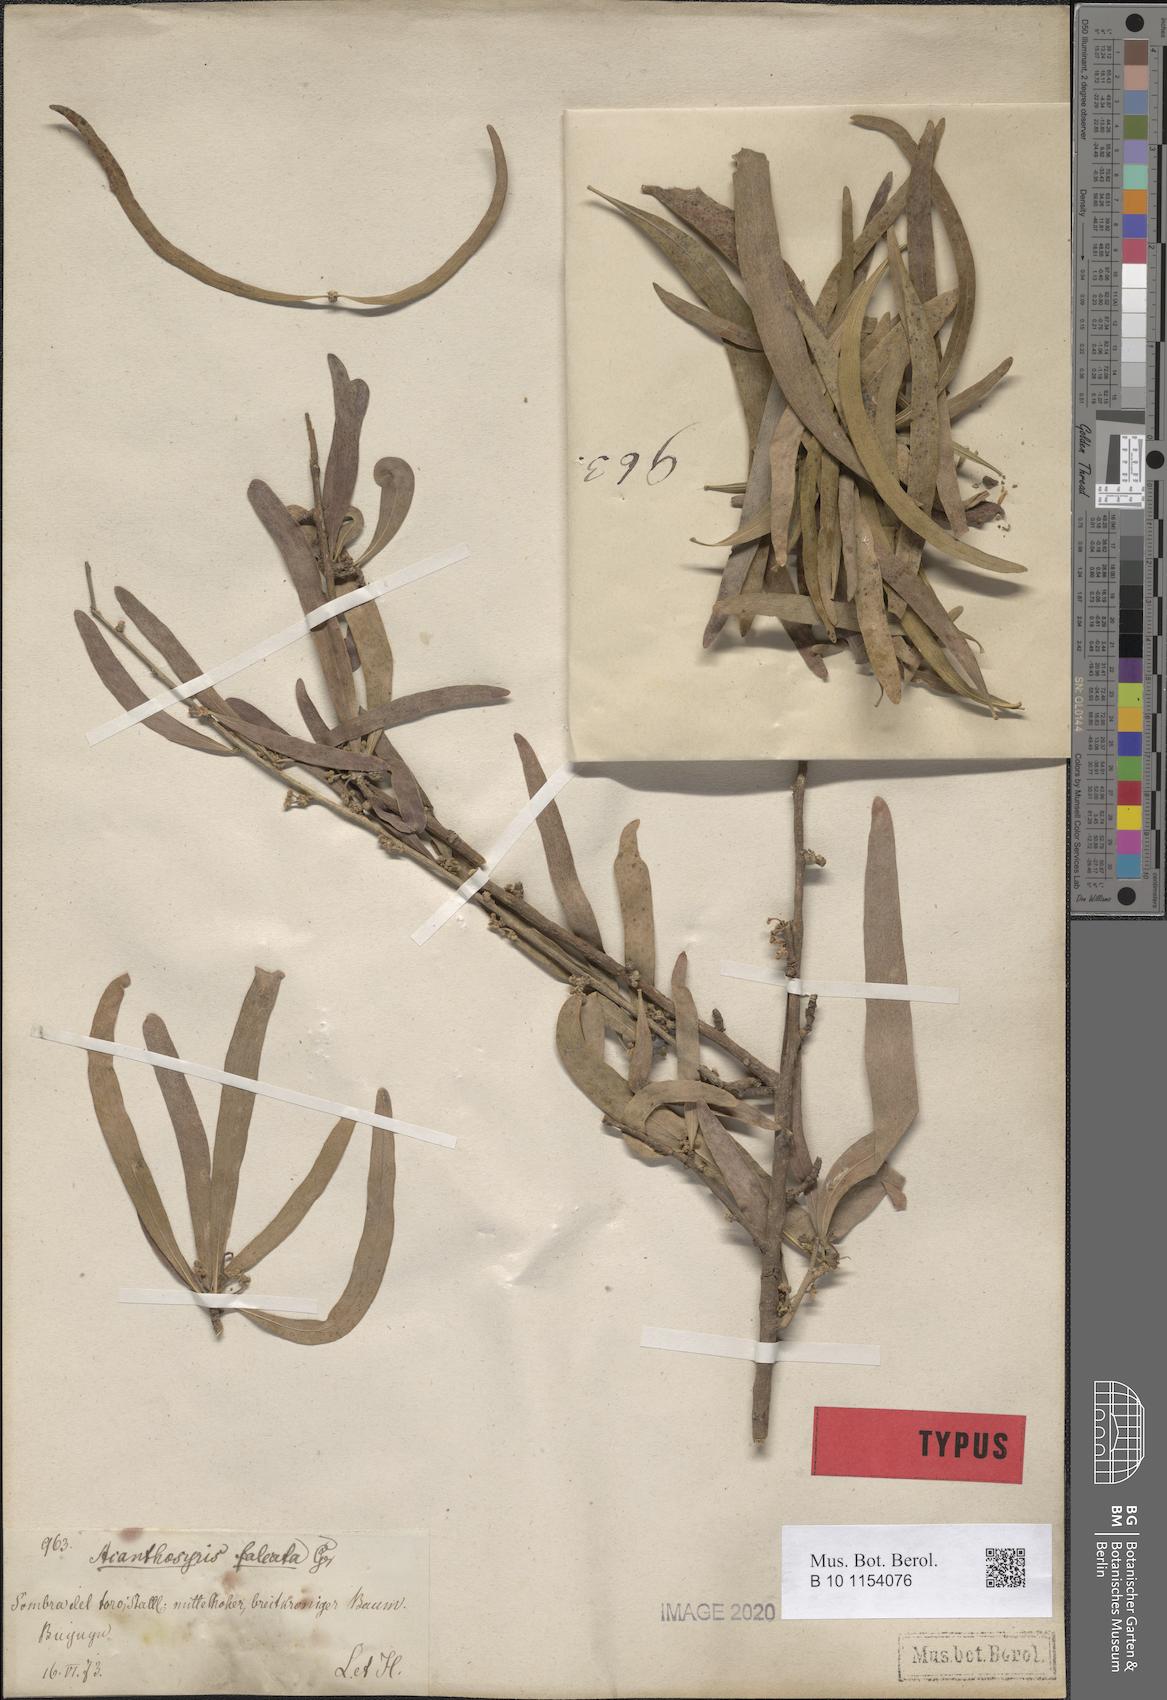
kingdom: Plantae
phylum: Tracheophyta
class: Magnoliopsida
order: Santalales
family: Cervantesiaceae
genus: Acanthosyris
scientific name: Acanthosyris falcata
